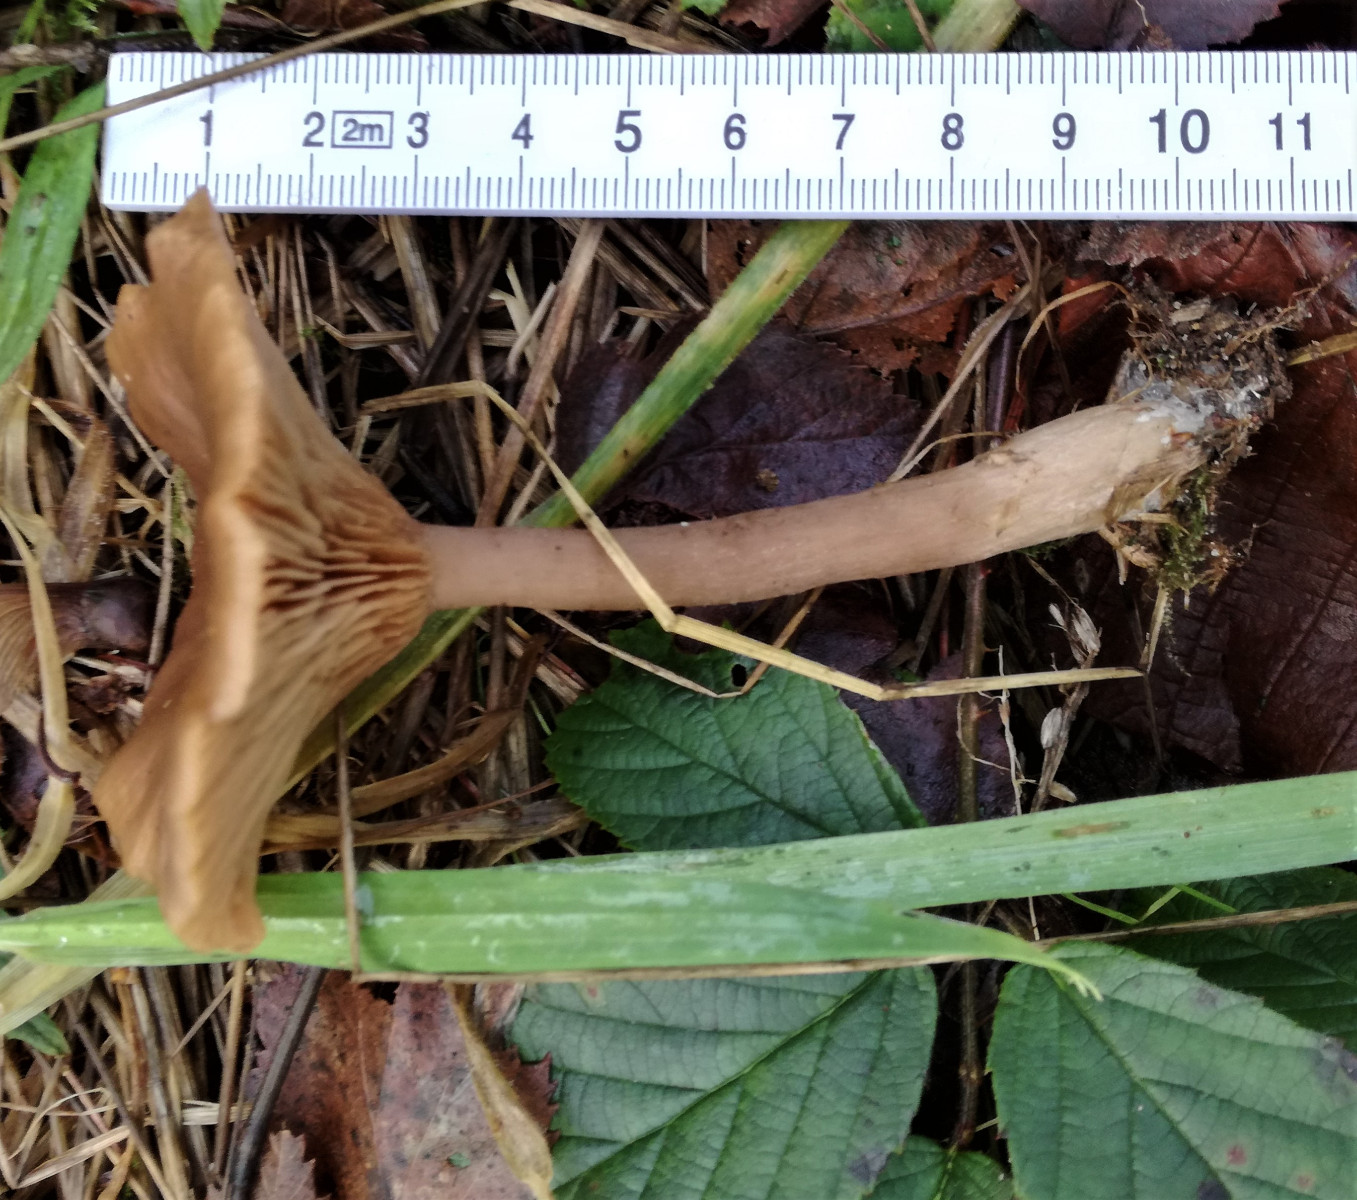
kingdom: Fungi
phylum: Basidiomycota
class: Agaricomycetes
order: Agaricales
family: Pseudoclitocybaceae
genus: Pseudoclitocybe
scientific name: Pseudoclitocybe cyathiformis
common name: almindelig bægertragthat
